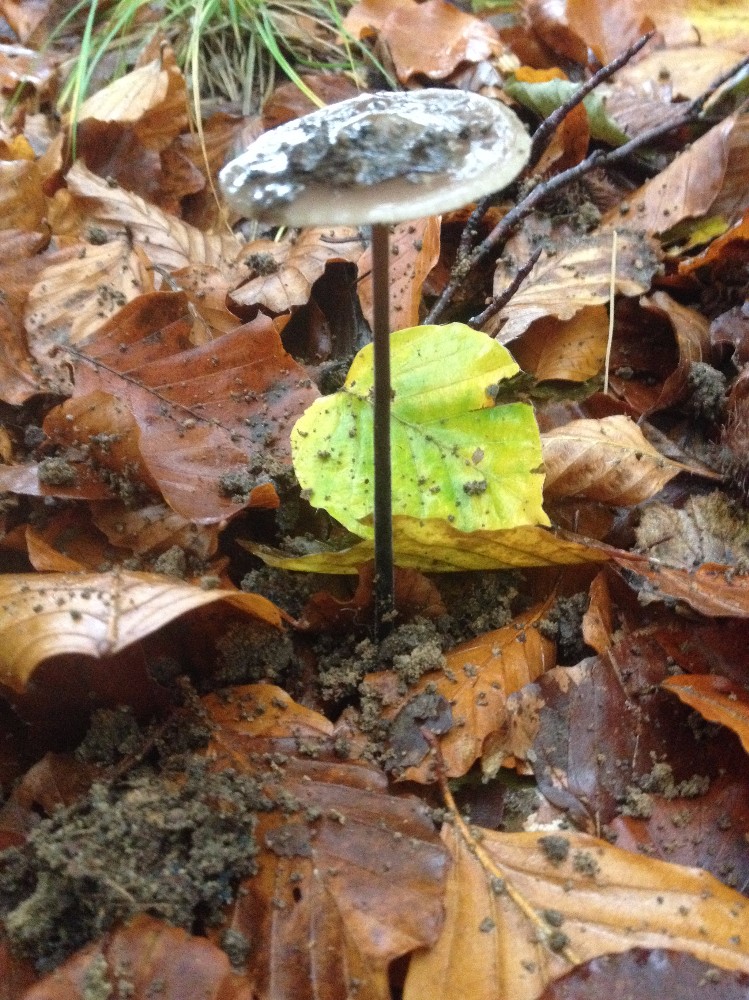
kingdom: Fungi
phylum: Basidiomycota
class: Agaricomycetes
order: Agaricales
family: Omphalotaceae
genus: Mycetinis
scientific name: Mycetinis alliaceus
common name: stor løghat
